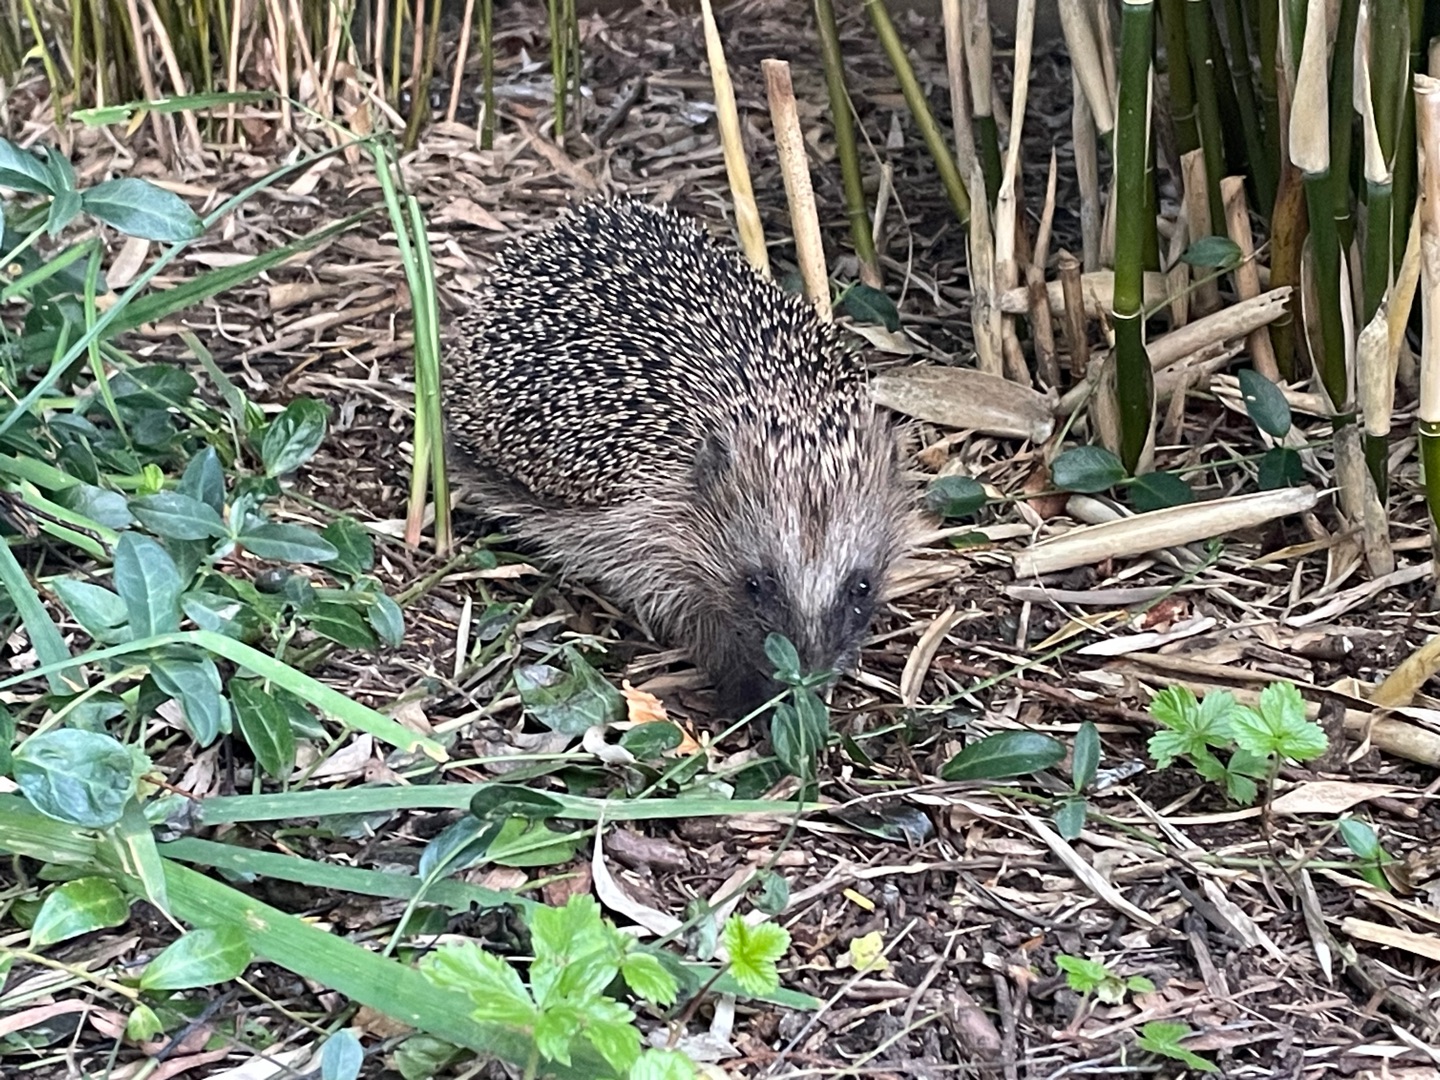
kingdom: Animalia
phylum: Chordata
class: Mammalia
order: Erinaceomorpha
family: Erinaceidae
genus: Erinaceus
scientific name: Erinaceus europaeus
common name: Pindsvin
